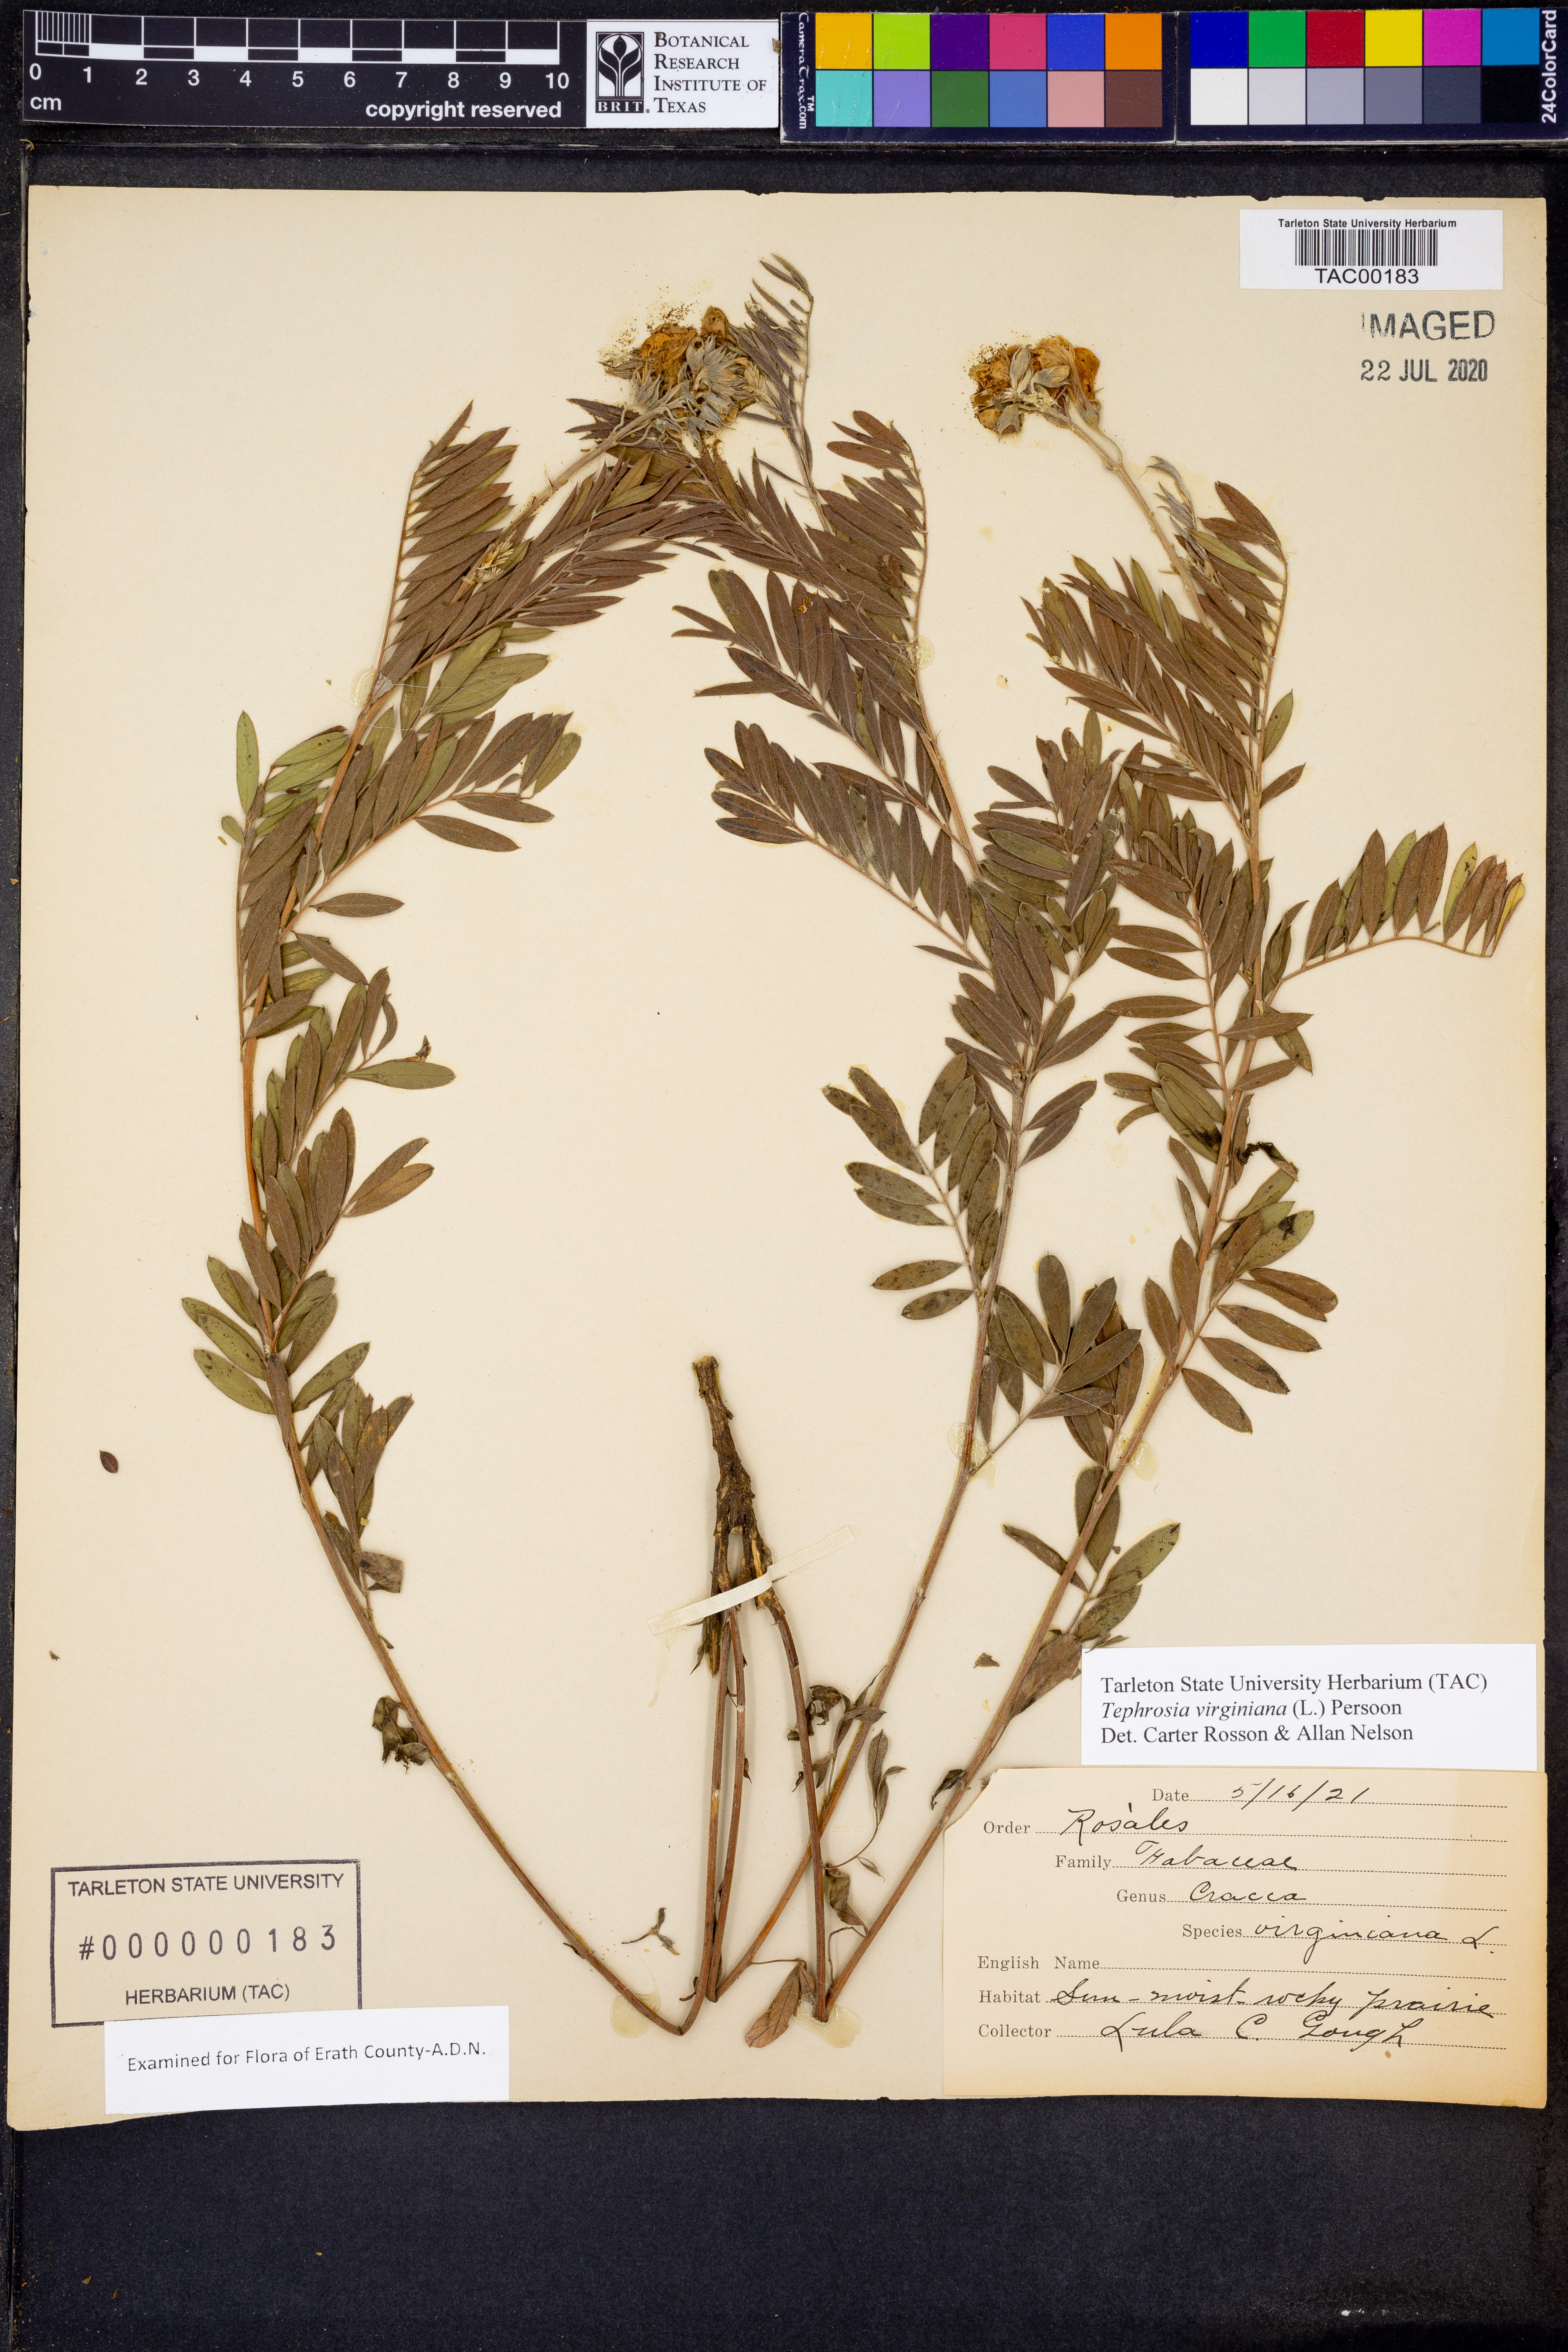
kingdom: Plantae
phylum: Tracheophyta
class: Magnoliopsida
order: Fabales
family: Fabaceae
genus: Tephrosia
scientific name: Tephrosia virginiana
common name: Rabbit-pea
